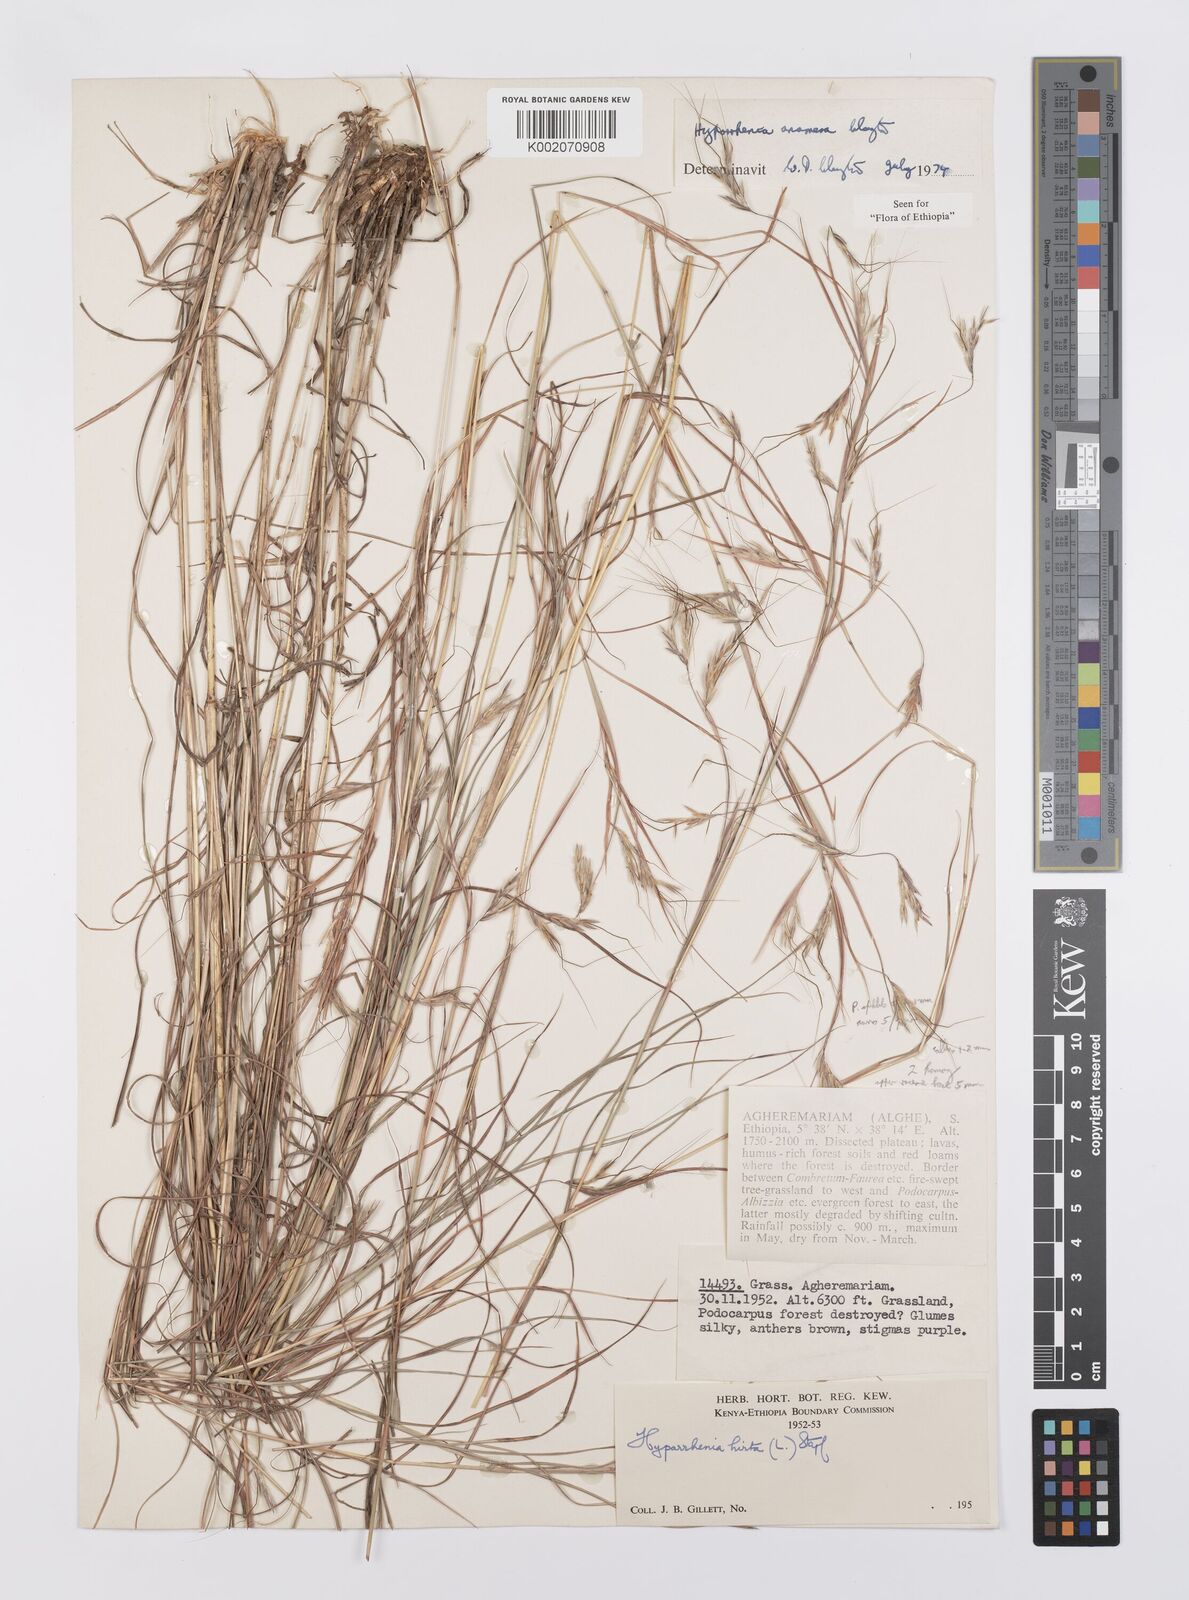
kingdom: Plantae
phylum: Tracheophyta
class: Liliopsida
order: Poales
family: Poaceae
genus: Hyparrhenia
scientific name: Hyparrhenia anamesa
